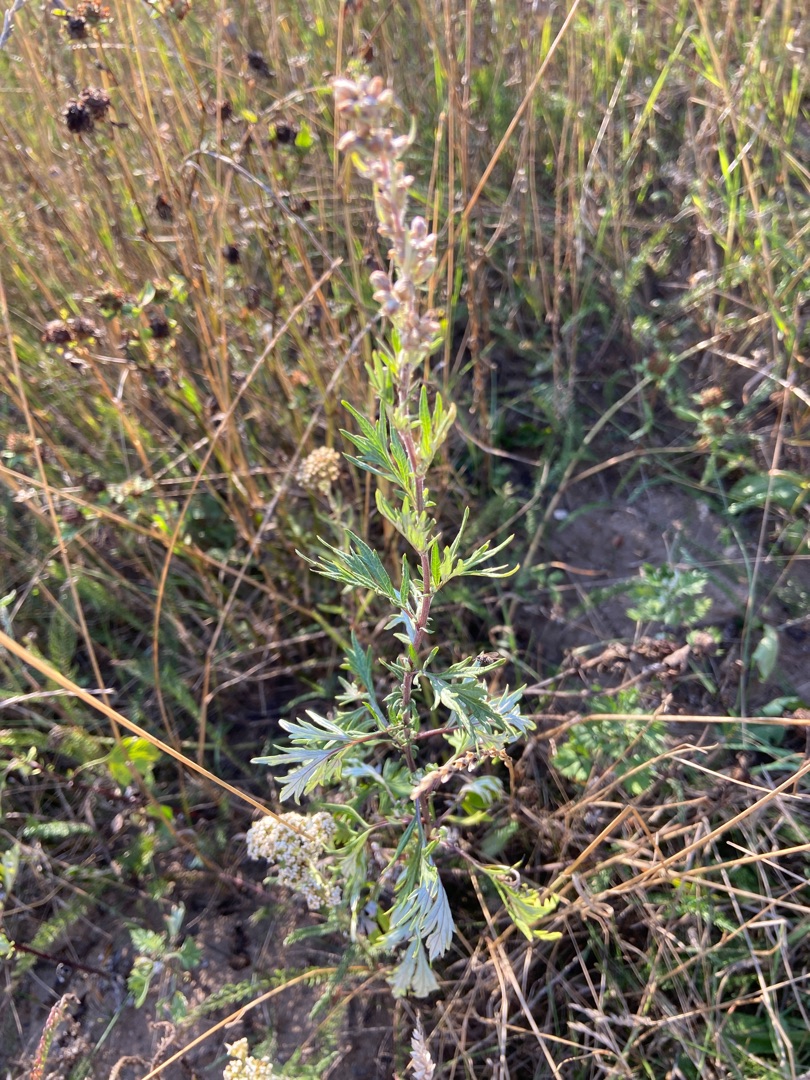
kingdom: Plantae
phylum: Tracheophyta
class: Magnoliopsida
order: Asterales
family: Asteraceae
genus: Artemisia
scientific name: Artemisia vulgaris
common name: Grå-bynke
